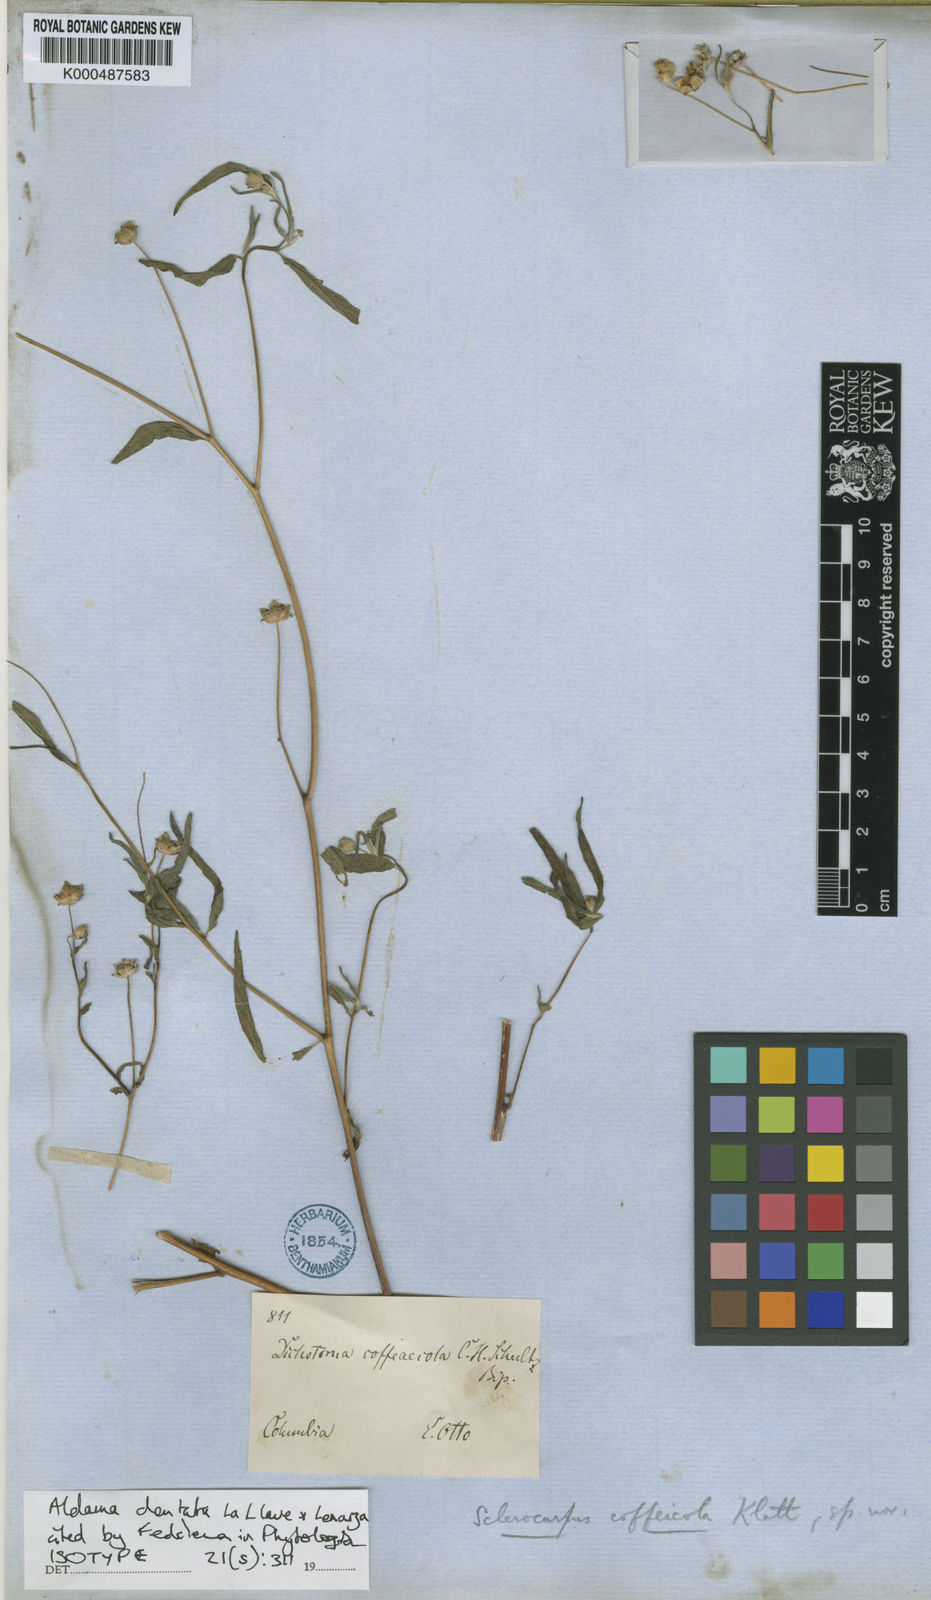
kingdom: Plantae
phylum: Tracheophyta
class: Magnoliopsida
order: Asterales
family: Asteraceae
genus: Aldama
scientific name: Aldama dentata
